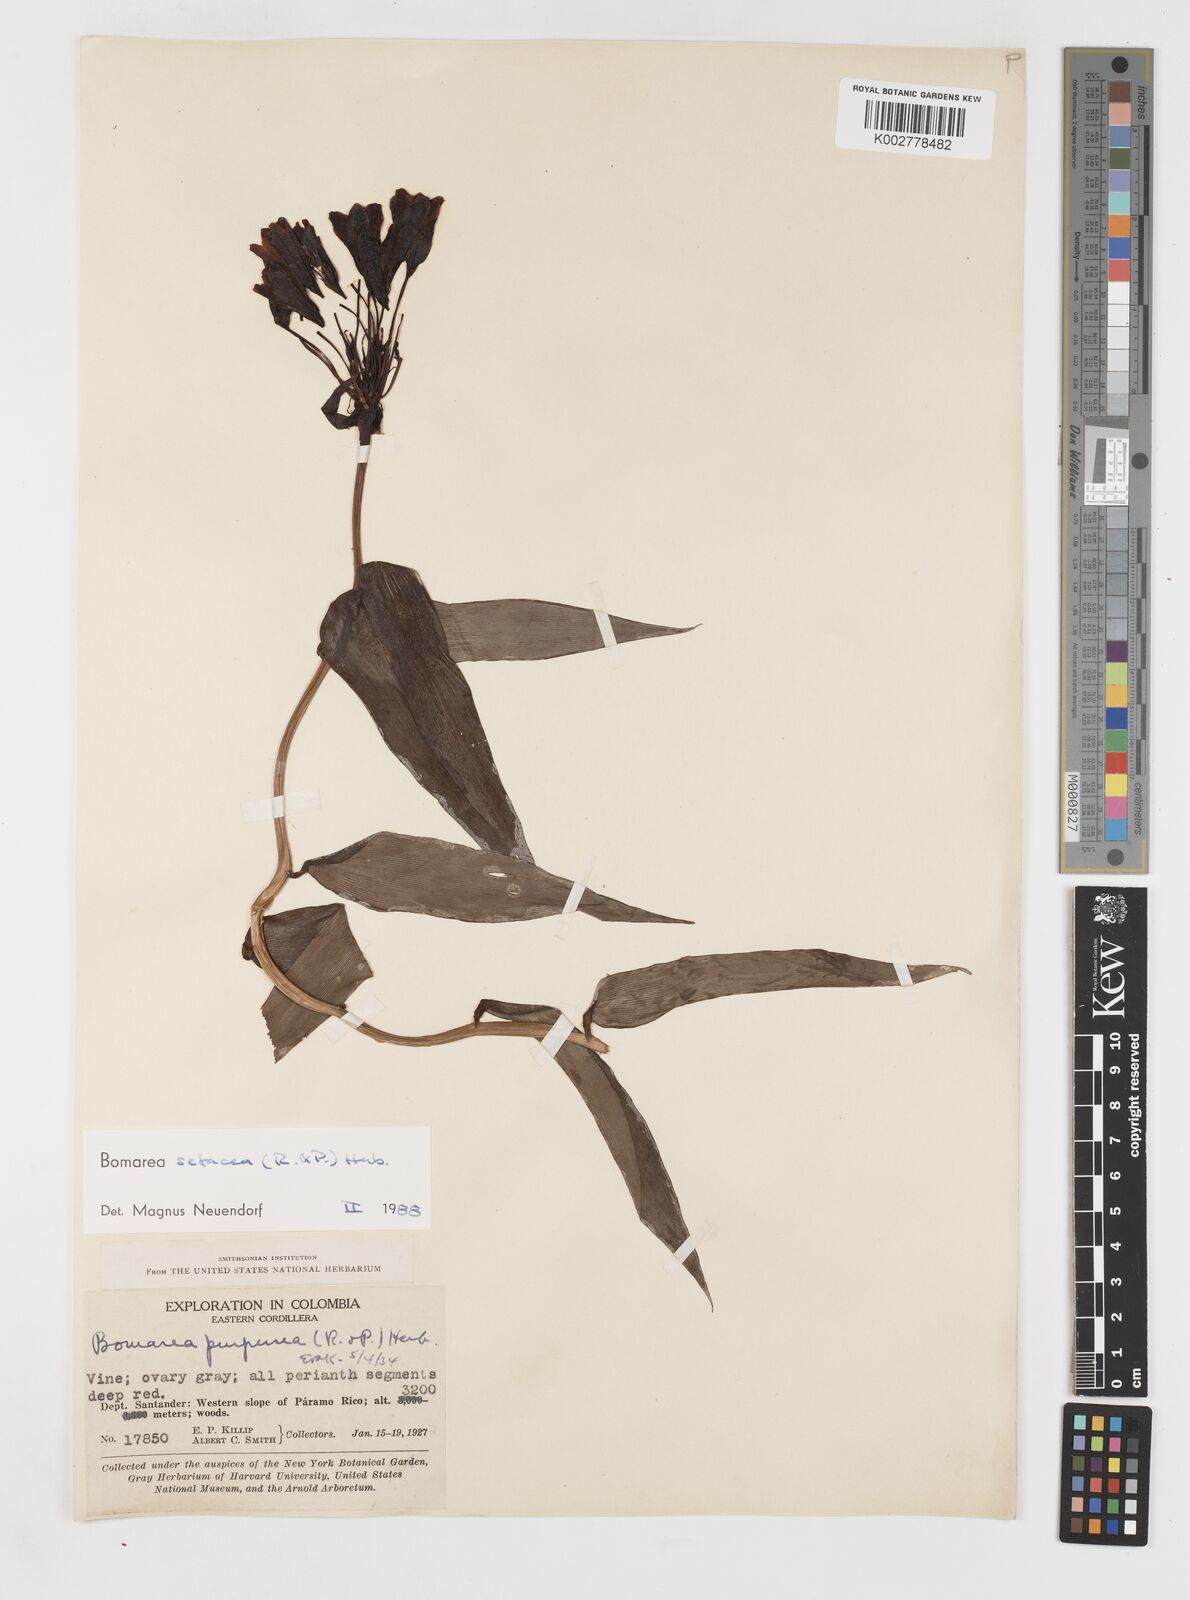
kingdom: Plantae
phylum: Tracheophyta
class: Liliopsida
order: Liliales
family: Alstroemeriaceae
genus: Bomarea
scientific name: Bomarea setacea
